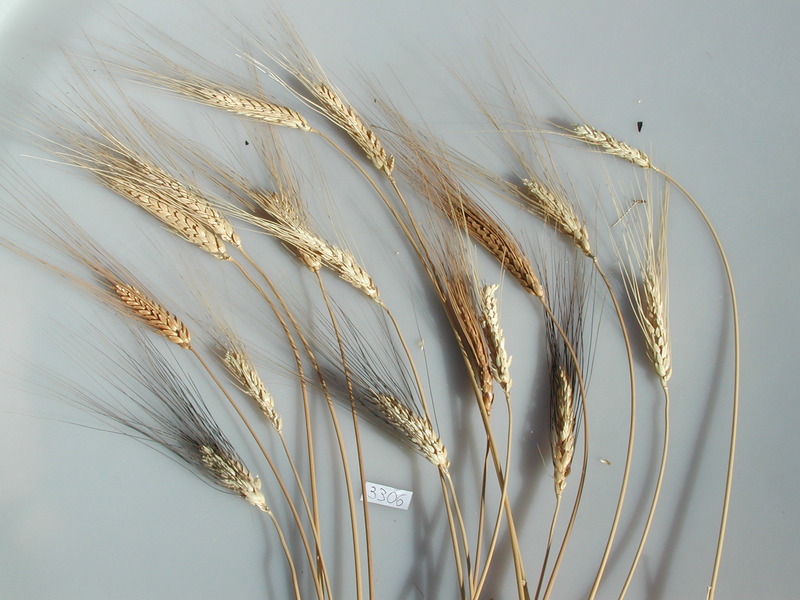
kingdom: Plantae
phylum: Tracheophyta
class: Liliopsida
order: Poales
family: Poaceae
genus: Triticum
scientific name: Triticum turgidum
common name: Wheat
